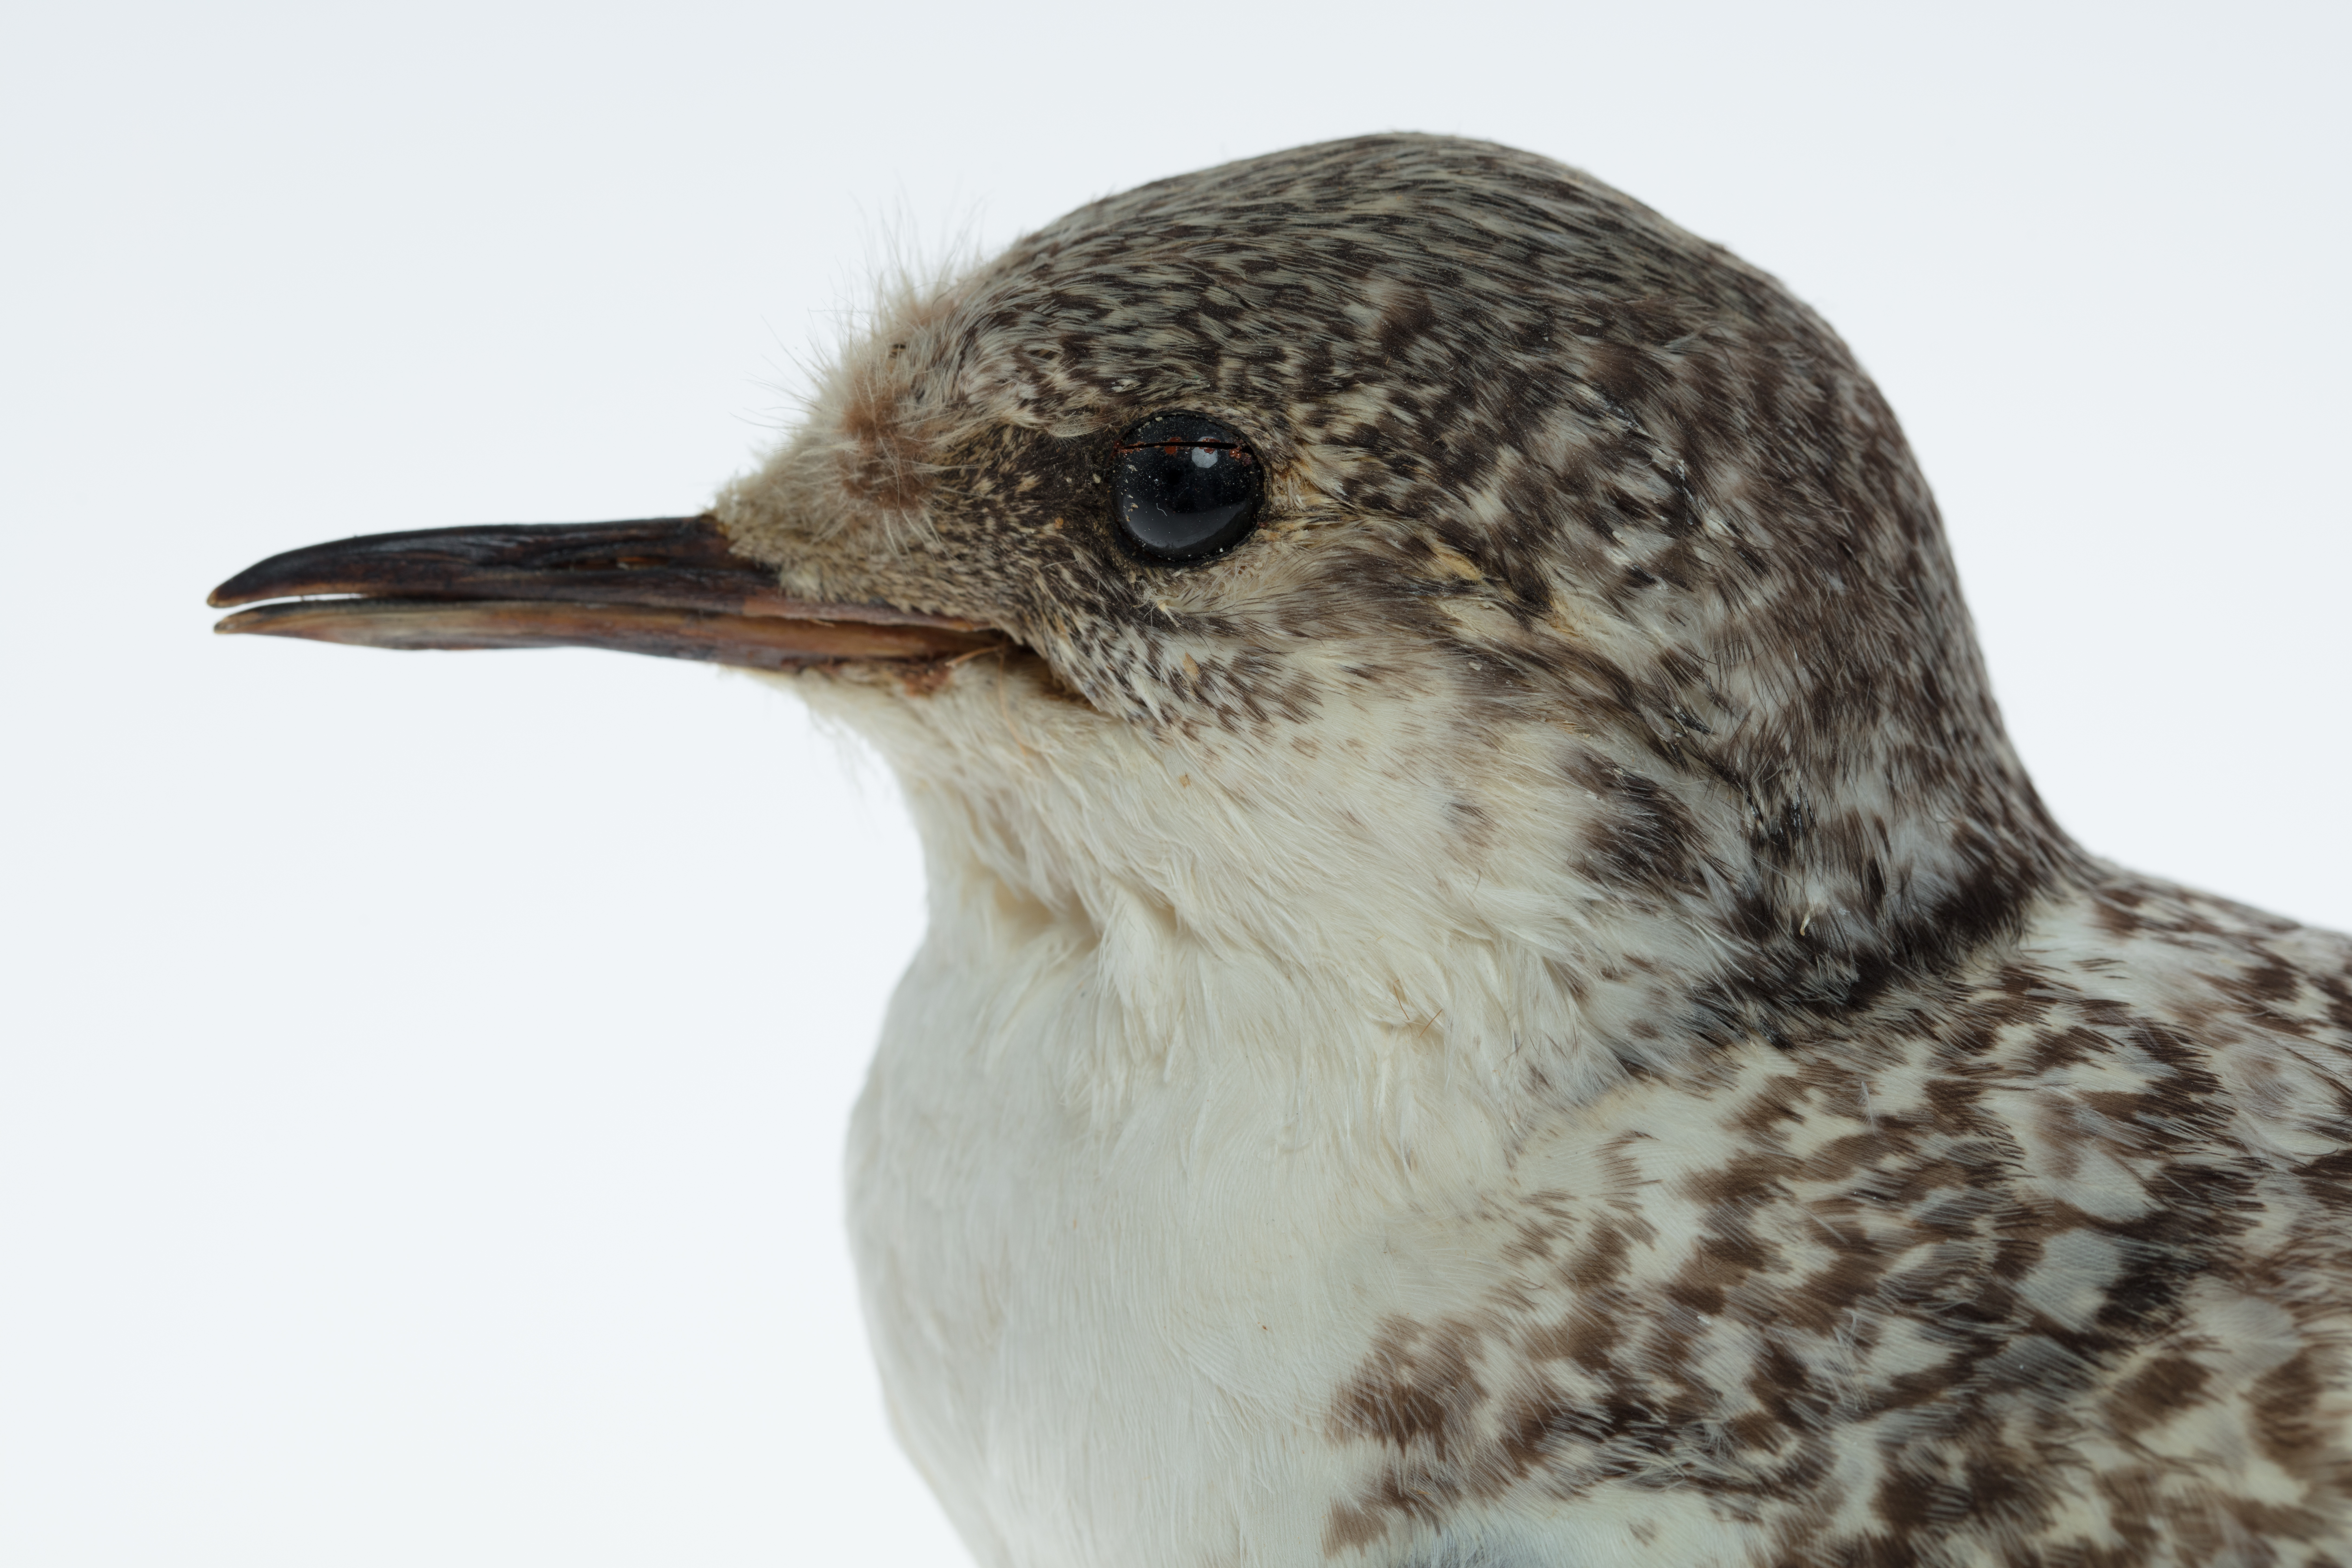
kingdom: Animalia
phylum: Chordata
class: Aves
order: Charadriiformes
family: Laridae
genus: Sterna
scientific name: Sterna striata
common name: White-fronted tern
